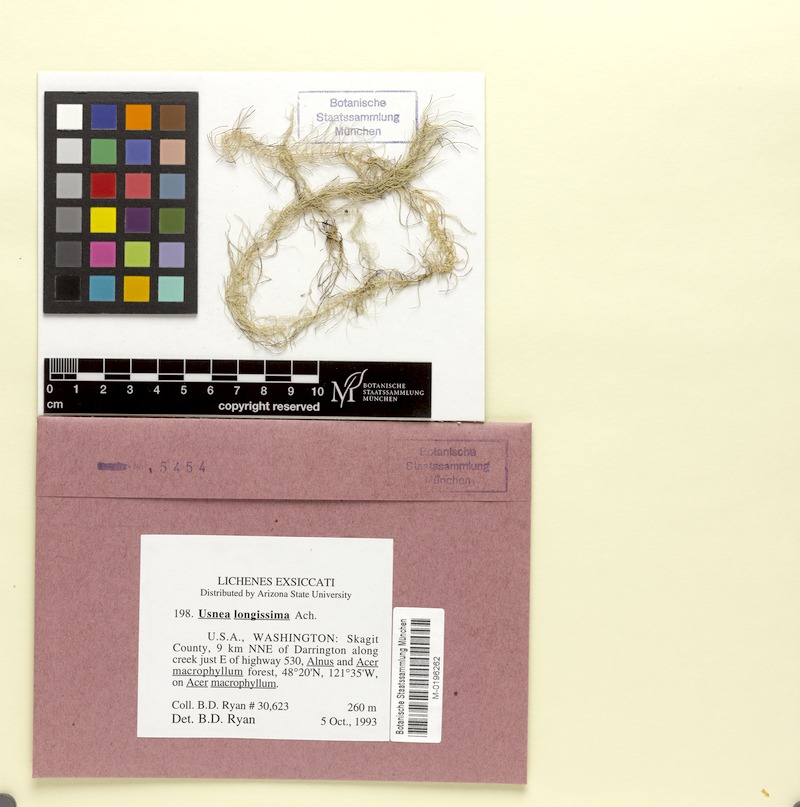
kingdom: Fungi
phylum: Ascomycota
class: Lecanoromycetes
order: Lecanorales
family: Parmeliaceae
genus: Dolichousnea
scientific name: Dolichousnea longissima
